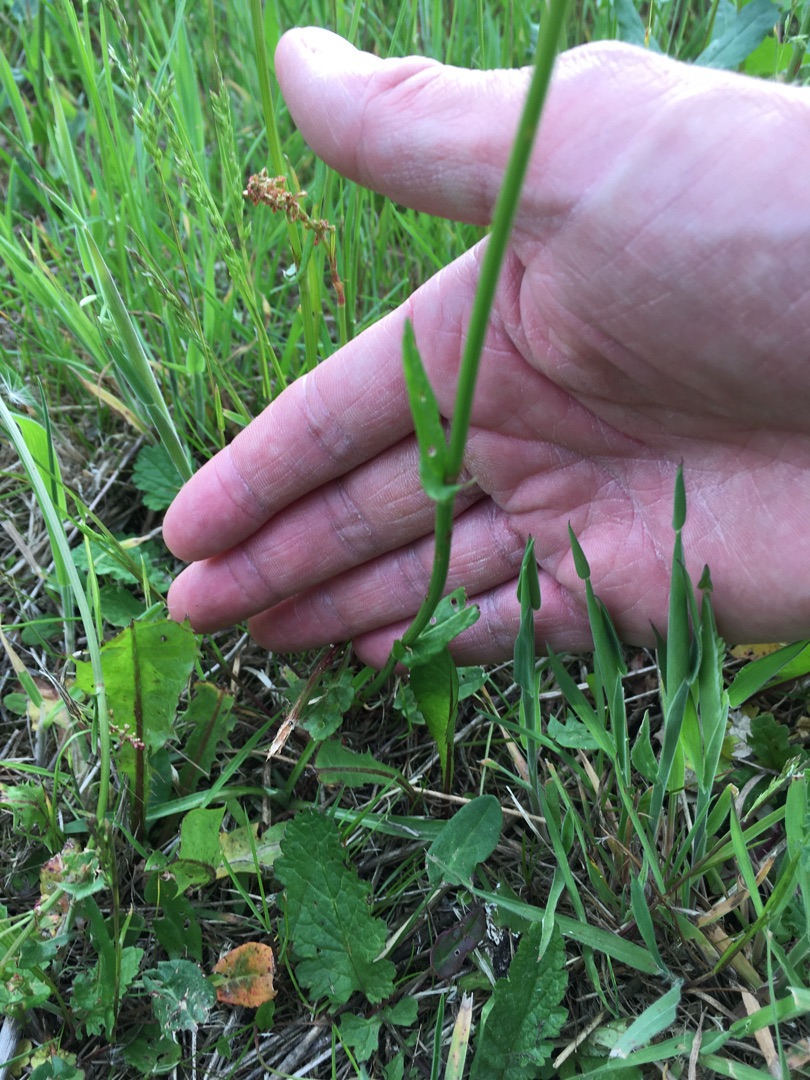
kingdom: Plantae
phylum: Tracheophyta
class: Magnoliopsida
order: Caryophyllales
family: Polygonaceae
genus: Rumex
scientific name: Rumex acetosa
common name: Almindelig syre
